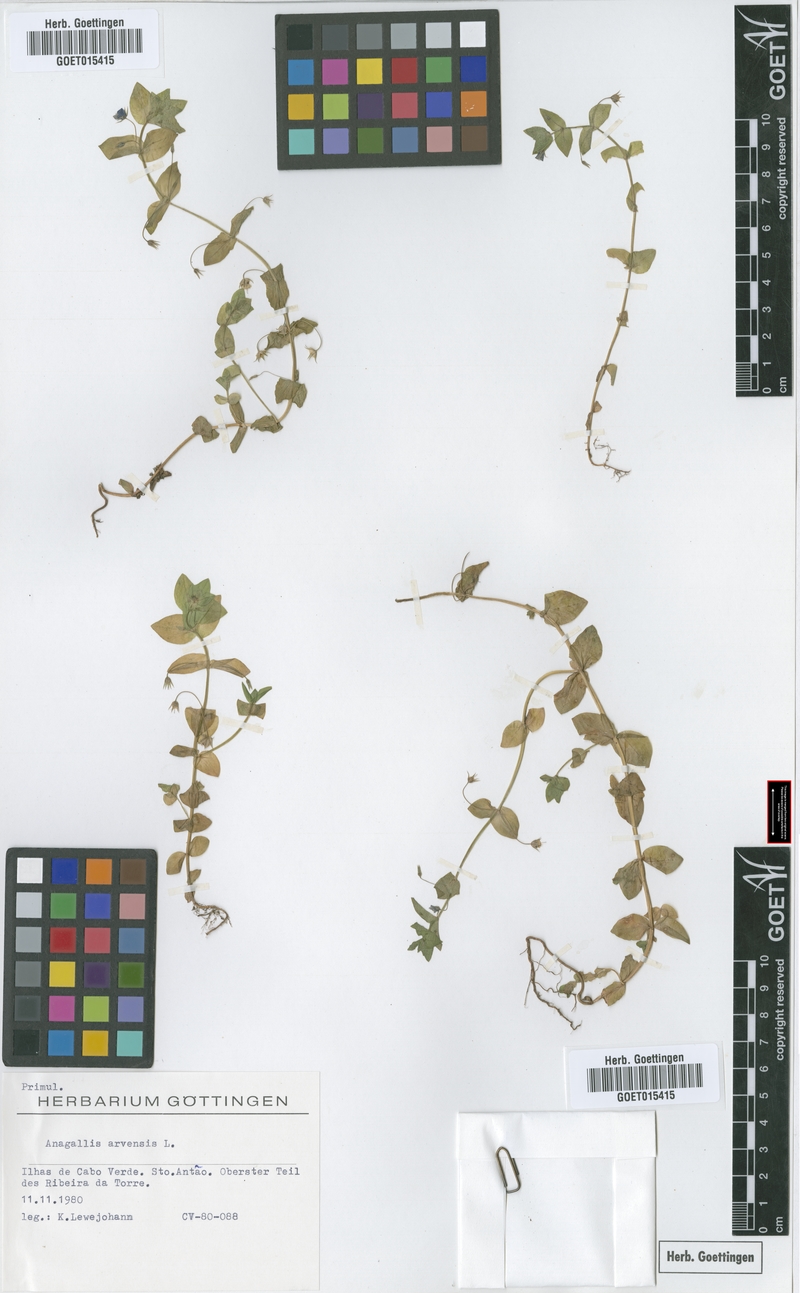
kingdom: Plantae
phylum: Tracheophyta
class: Magnoliopsida
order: Ericales
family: Primulaceae
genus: Lysimachia
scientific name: Lysimachia arvensis
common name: Scarlet pimpernel
